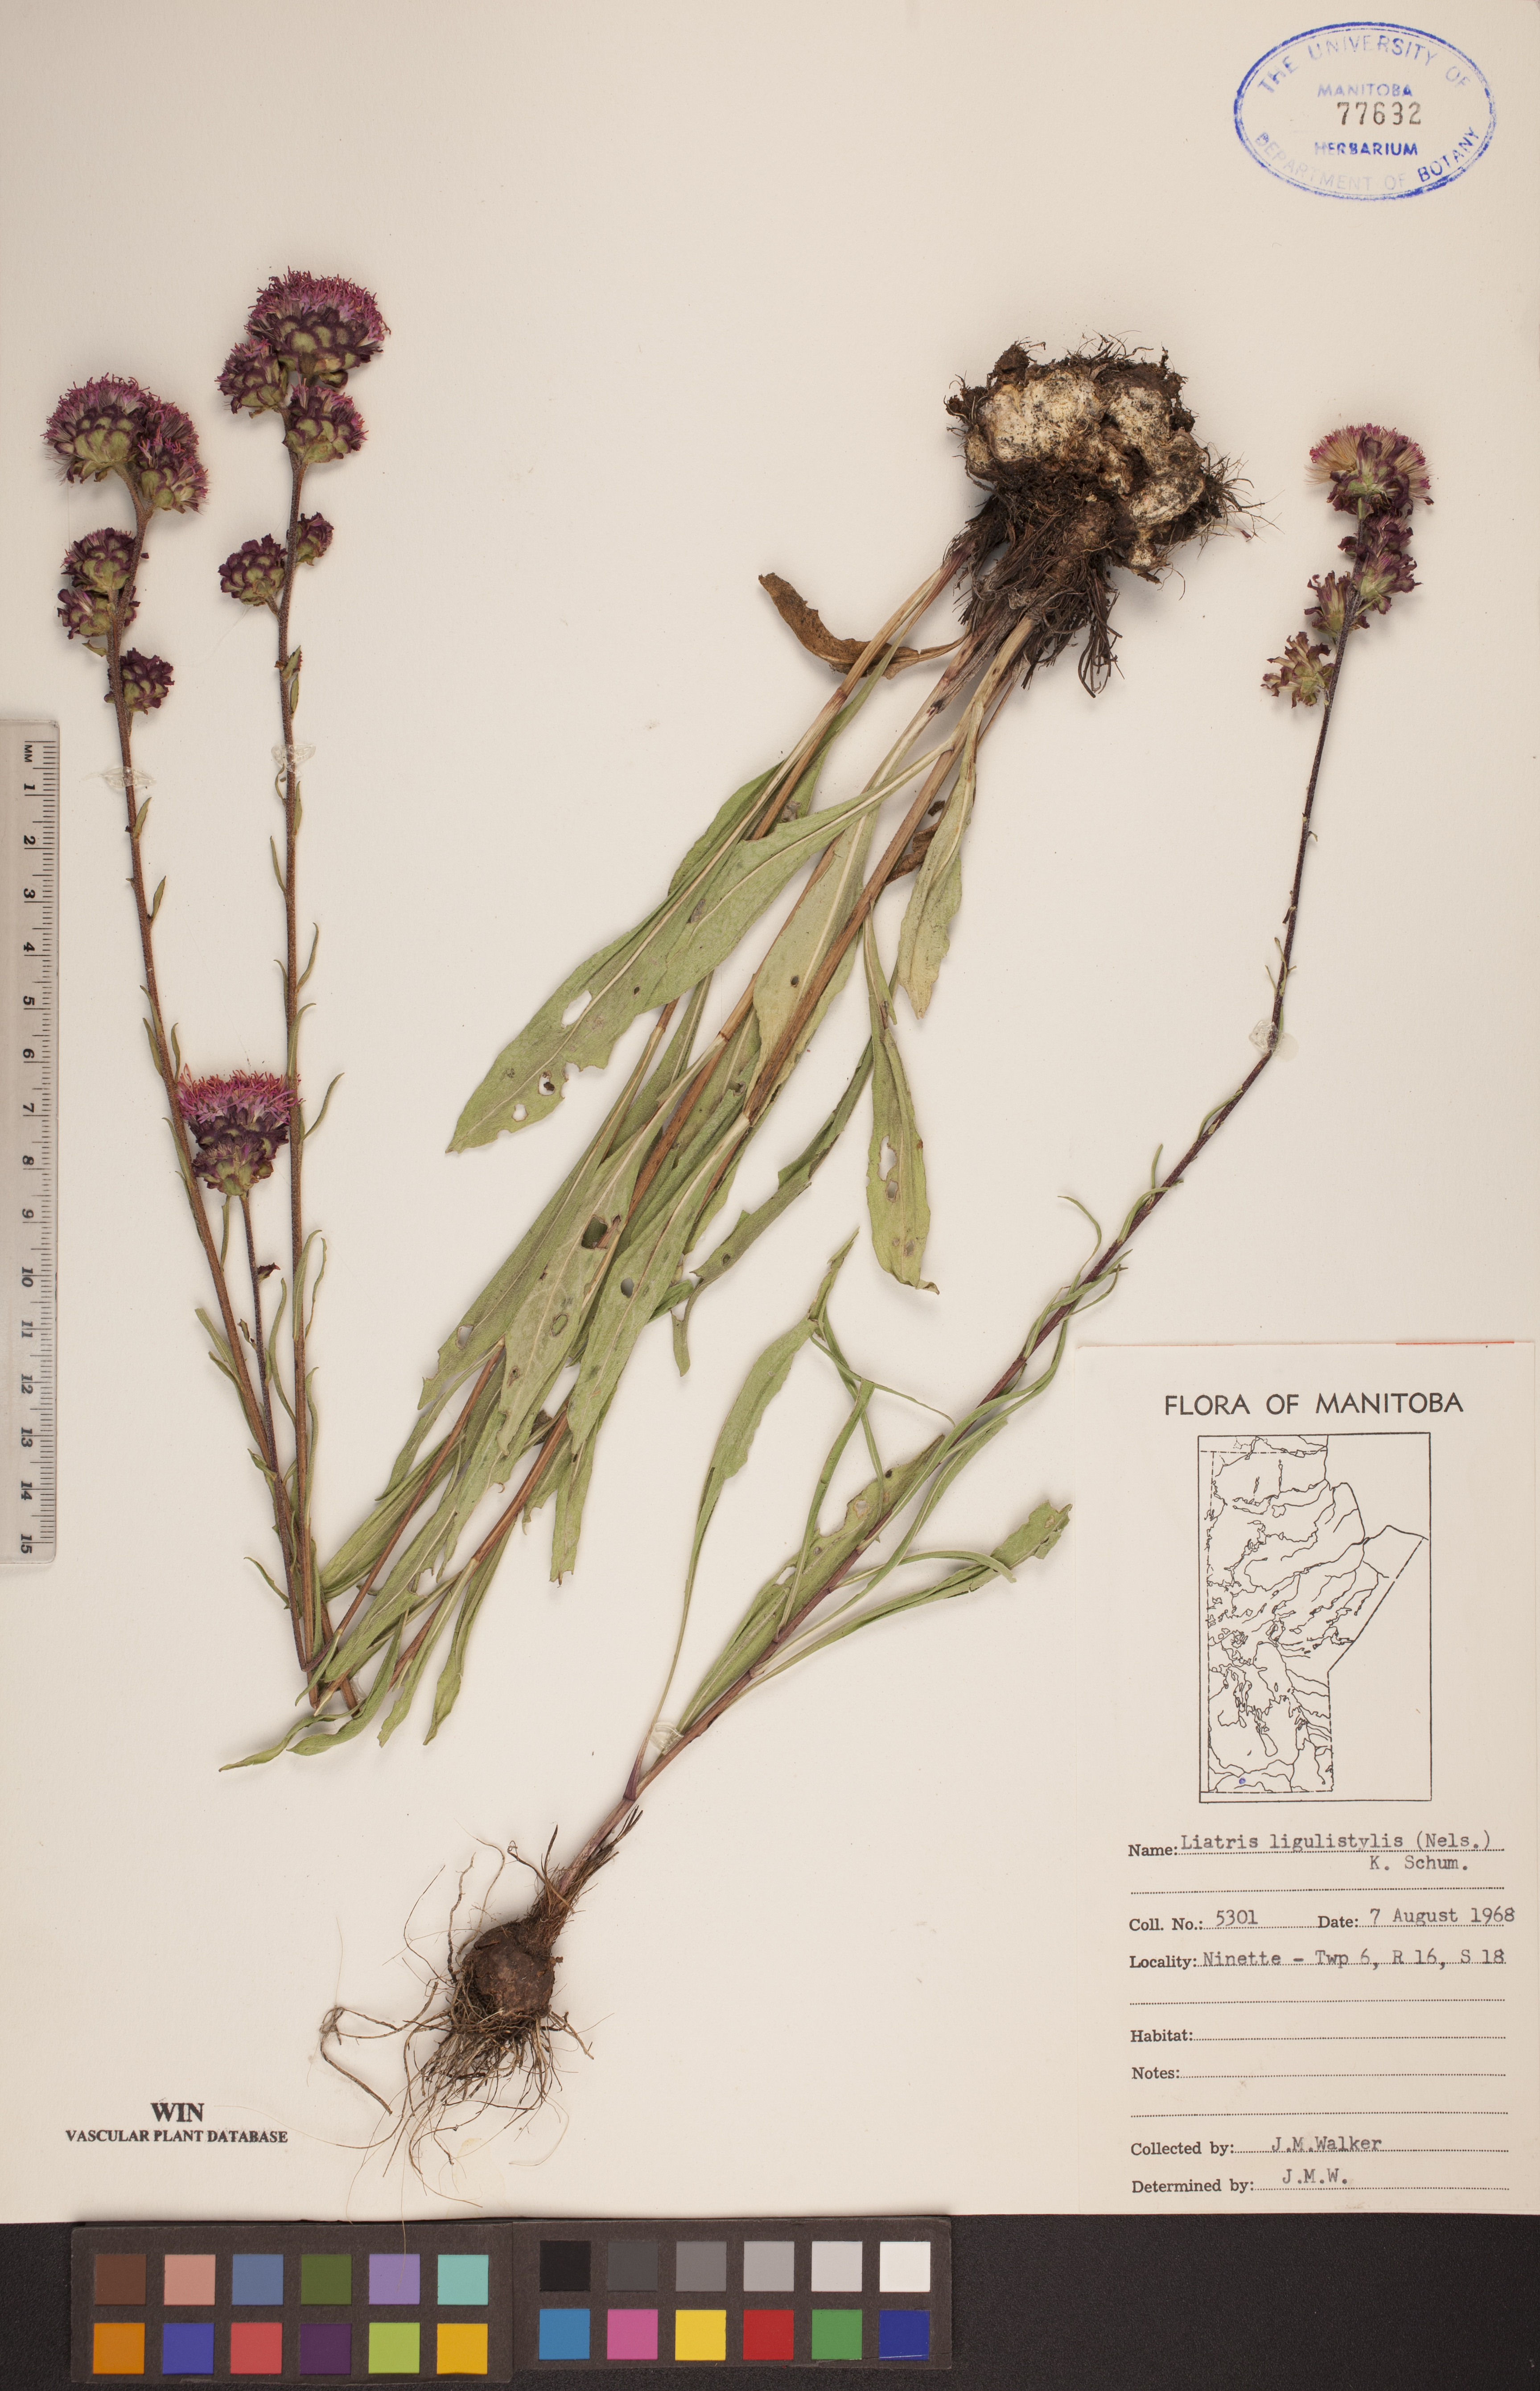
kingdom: Plantae
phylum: Tracheophyta
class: Magnoliopsida
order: Asterales
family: Asteraceae
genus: Liatris
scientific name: Liatris ligulistylis
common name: Northern plains gayfeather
